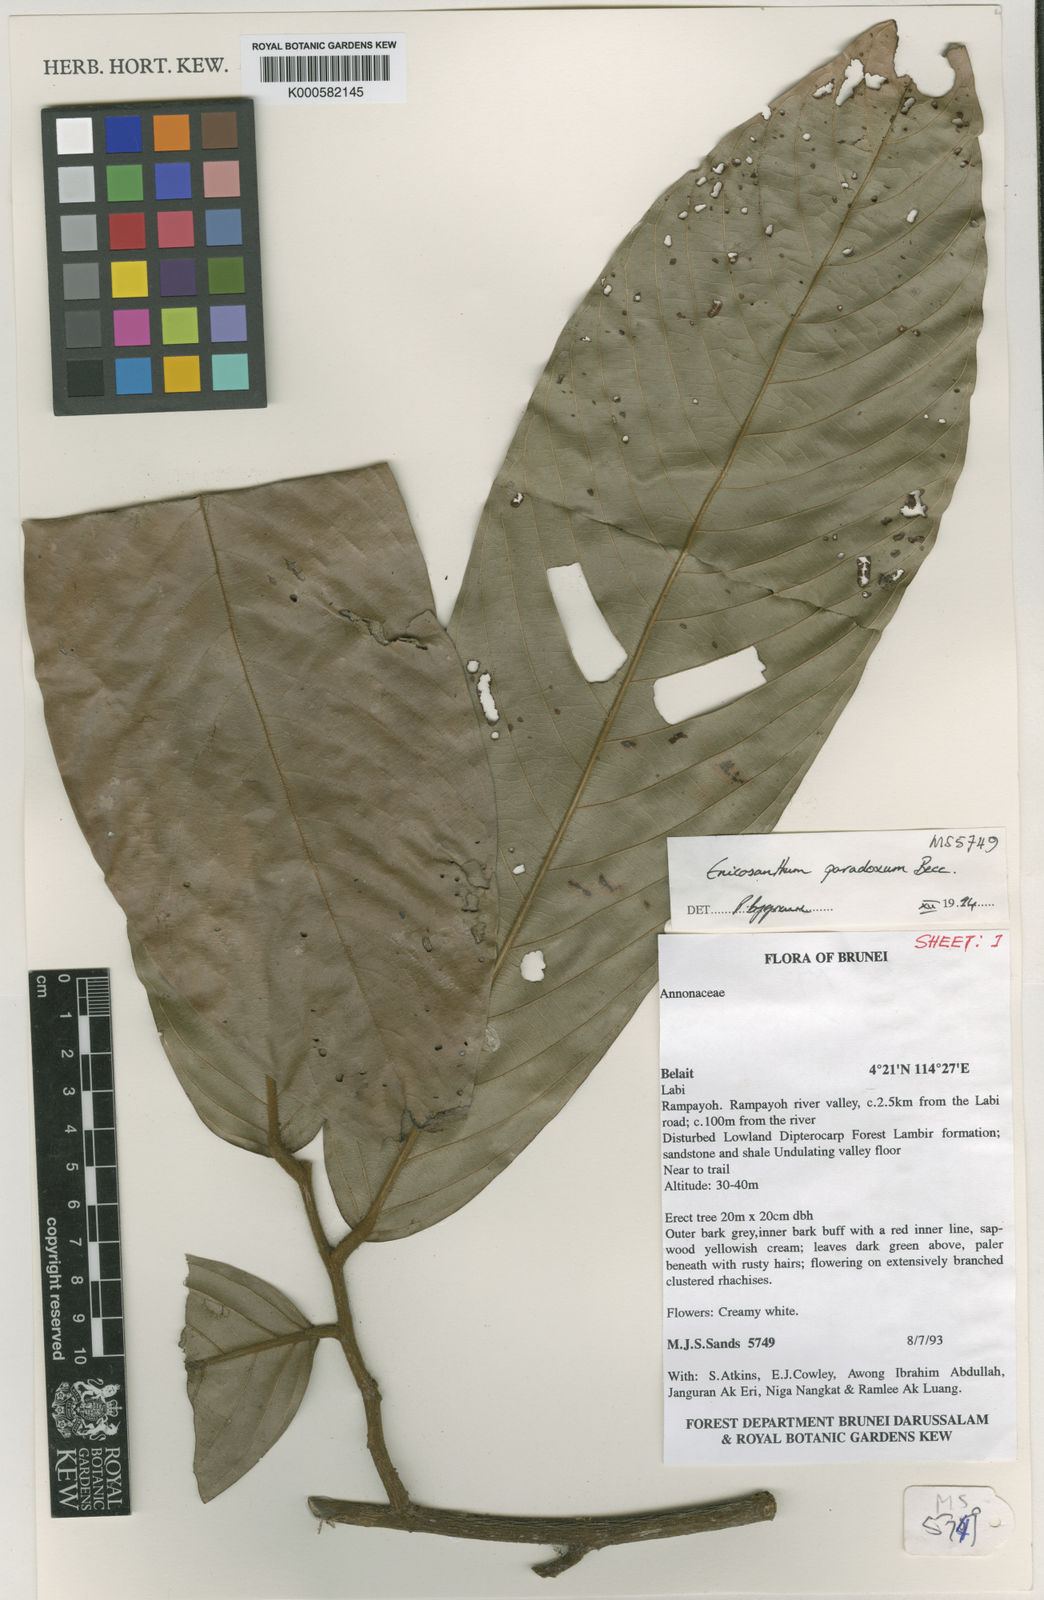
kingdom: Plantae
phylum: Tracheophyta
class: Magnoliopsida
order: Magnoliales
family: Annonaceae
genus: Enicosanthum
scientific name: Enicosanthum paradoxum
